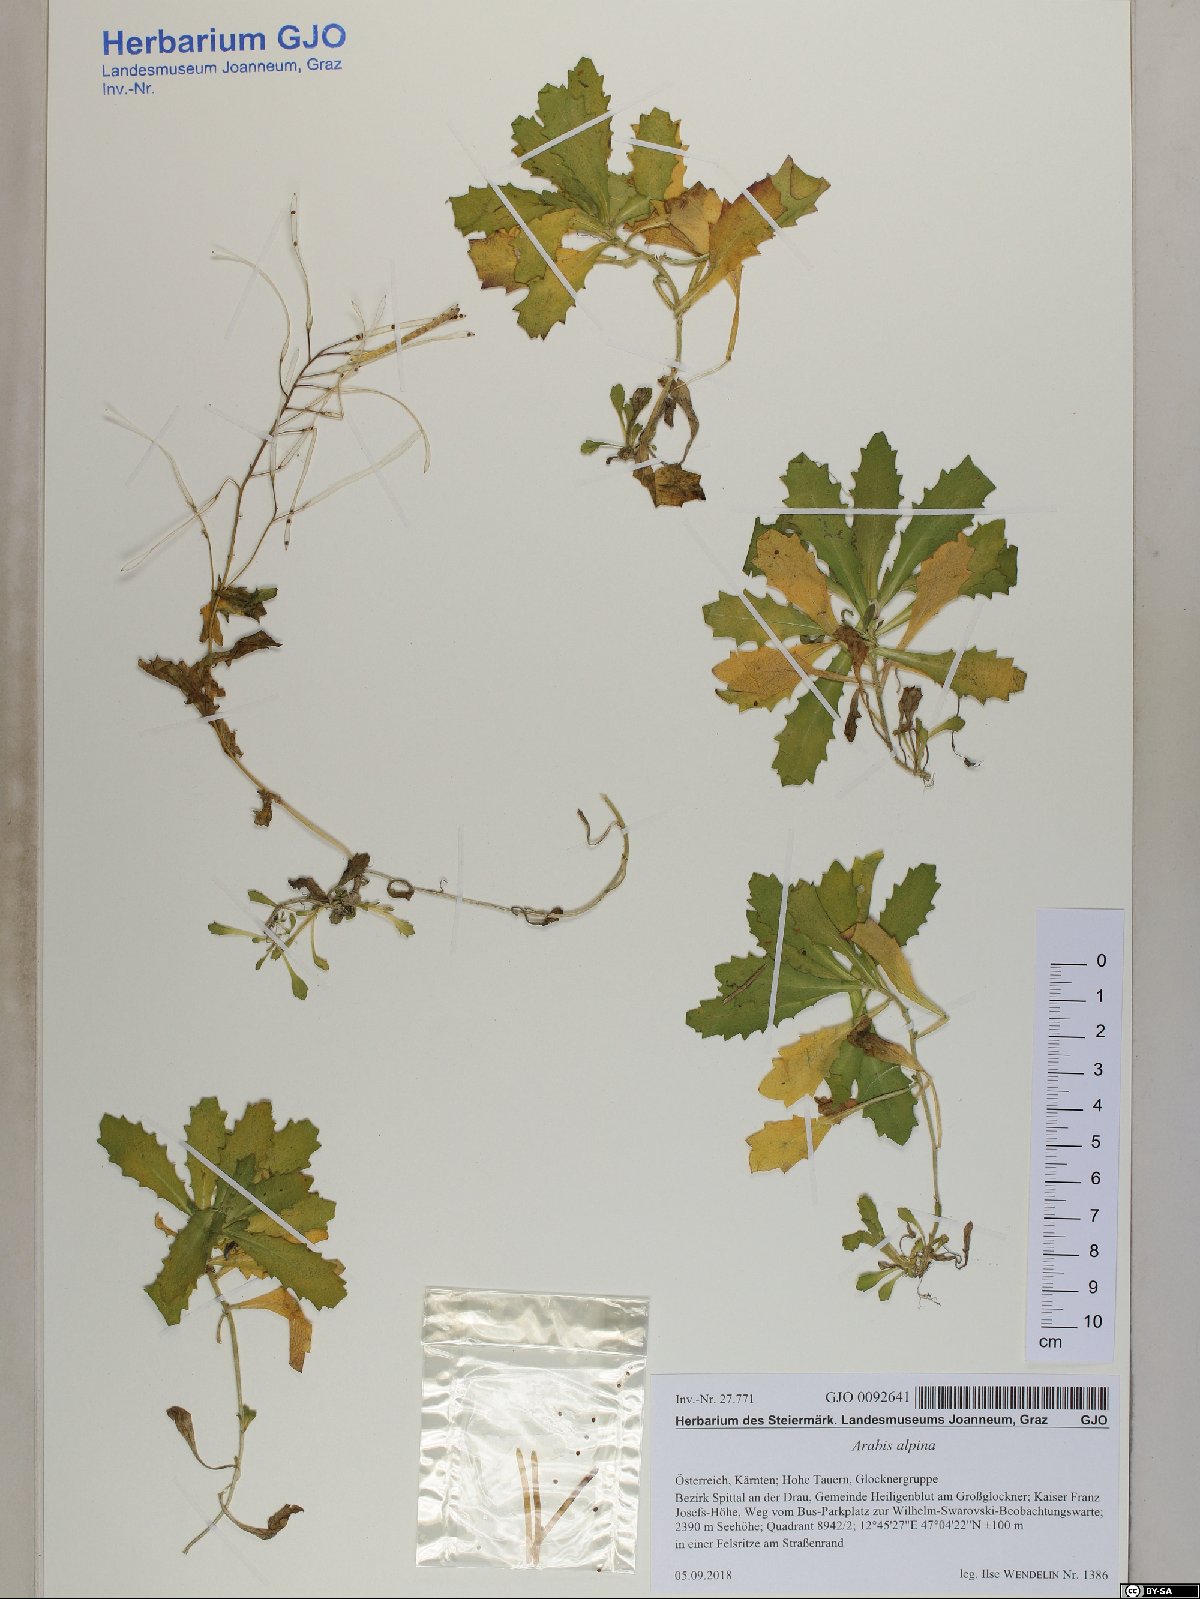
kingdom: Plantae
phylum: Tracheophyta
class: Magnoliopsida
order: Brassicales
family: Brassicaceae
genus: Arabis
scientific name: Arabis alpina
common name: Alpine rock-cress
